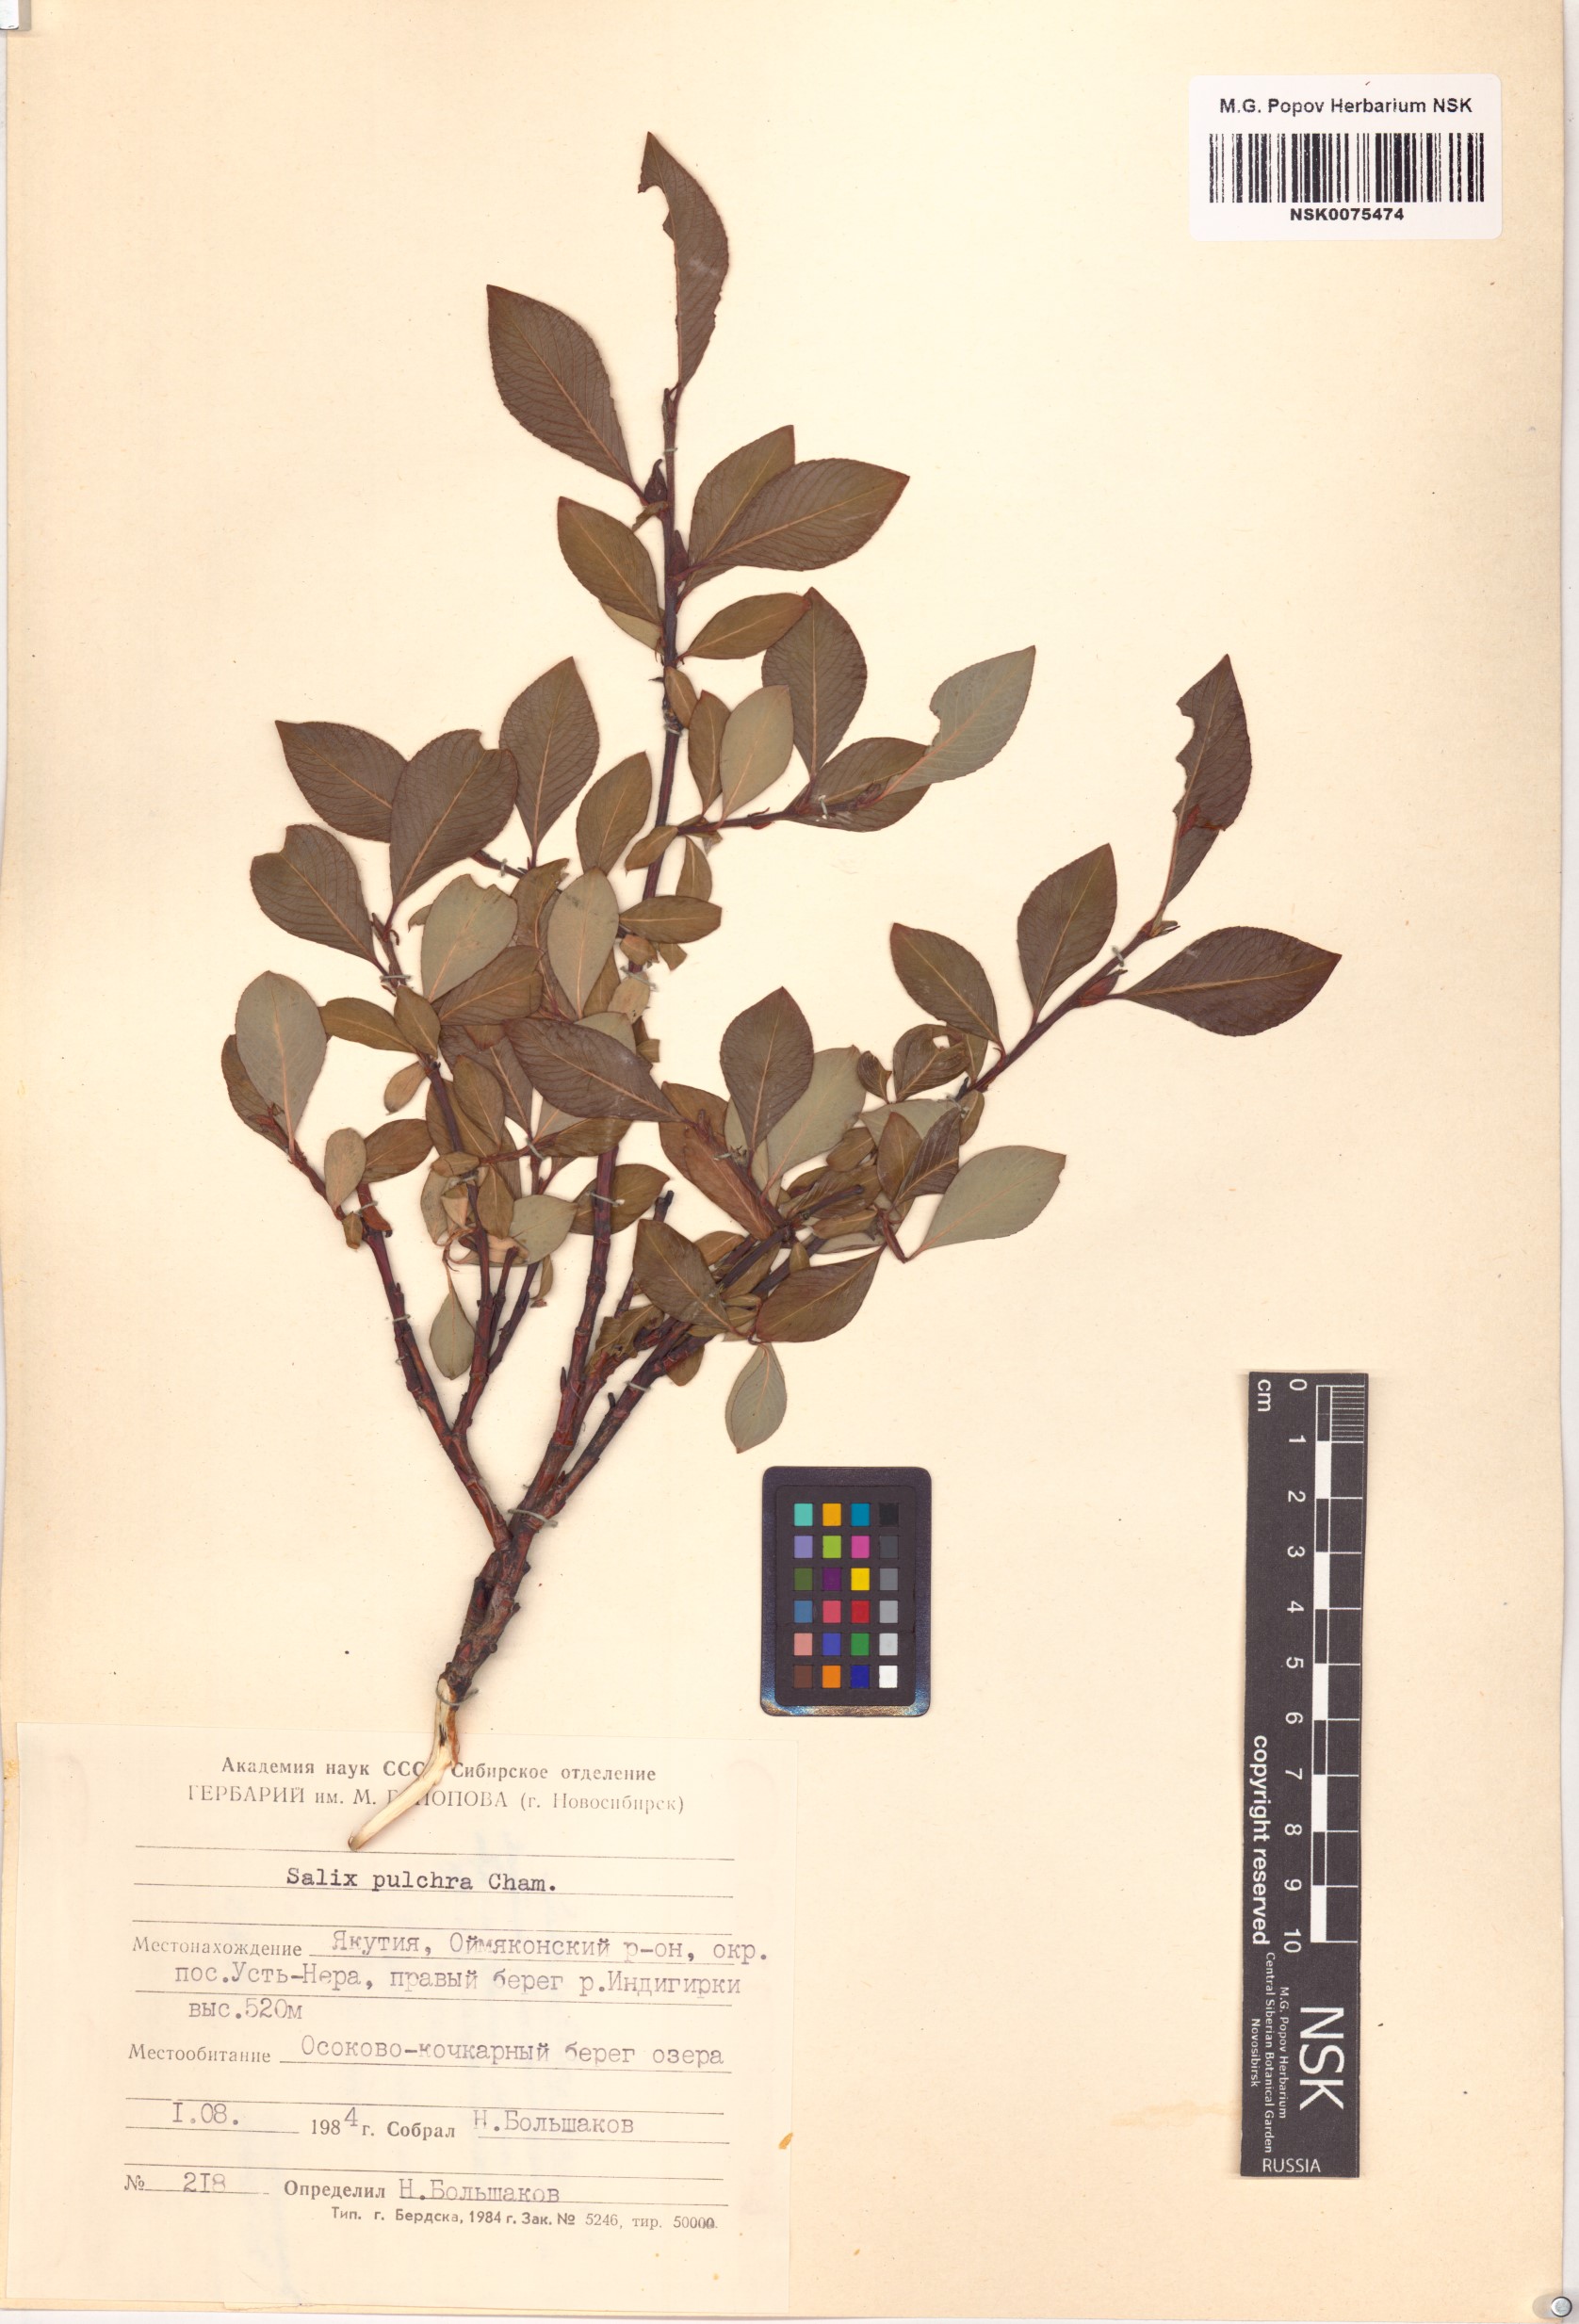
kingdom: Plantae
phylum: Tracheophyta
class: Magnoliopsida
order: Malpighiales
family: Salicaceae
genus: Salix
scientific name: Salix pulchra
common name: Diamond-leaved willow
